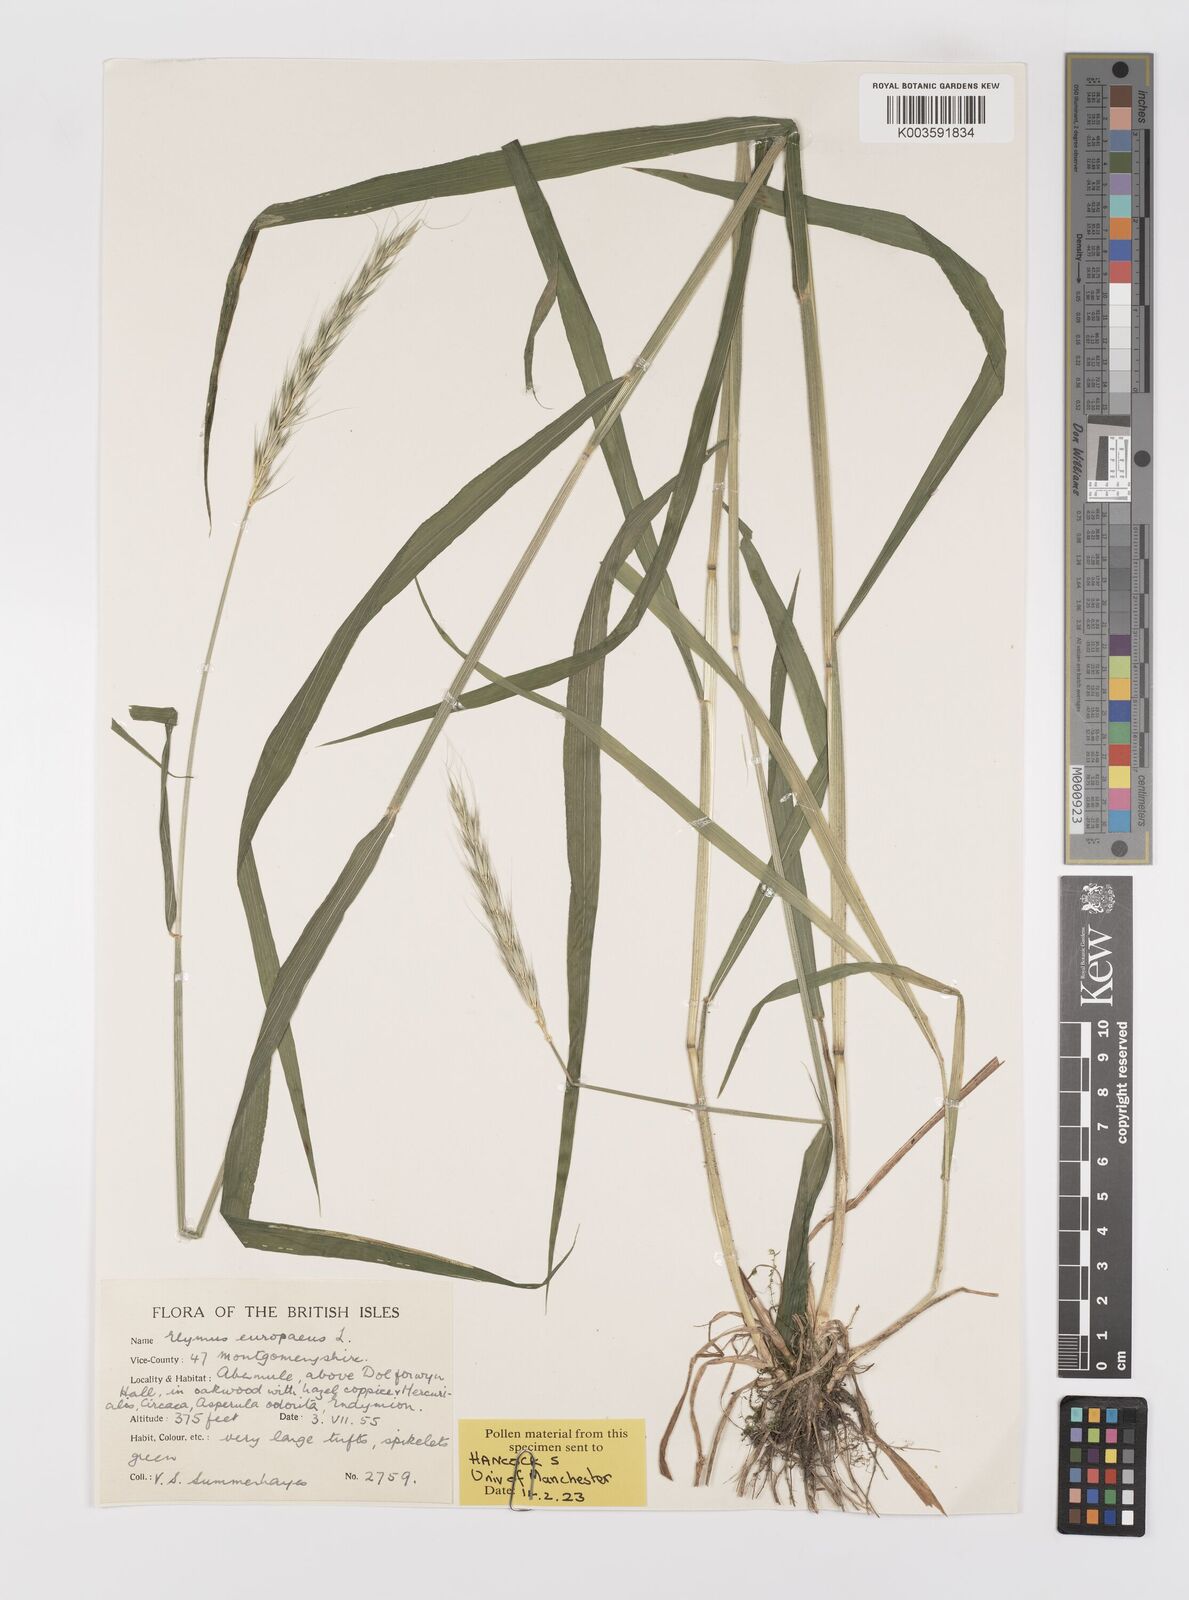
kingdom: Plantae
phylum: Tracheophyta
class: Liliopsida
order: Poales
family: Poaceae
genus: Hordelymus
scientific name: Hordelymus europaeus
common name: Wood-barley
